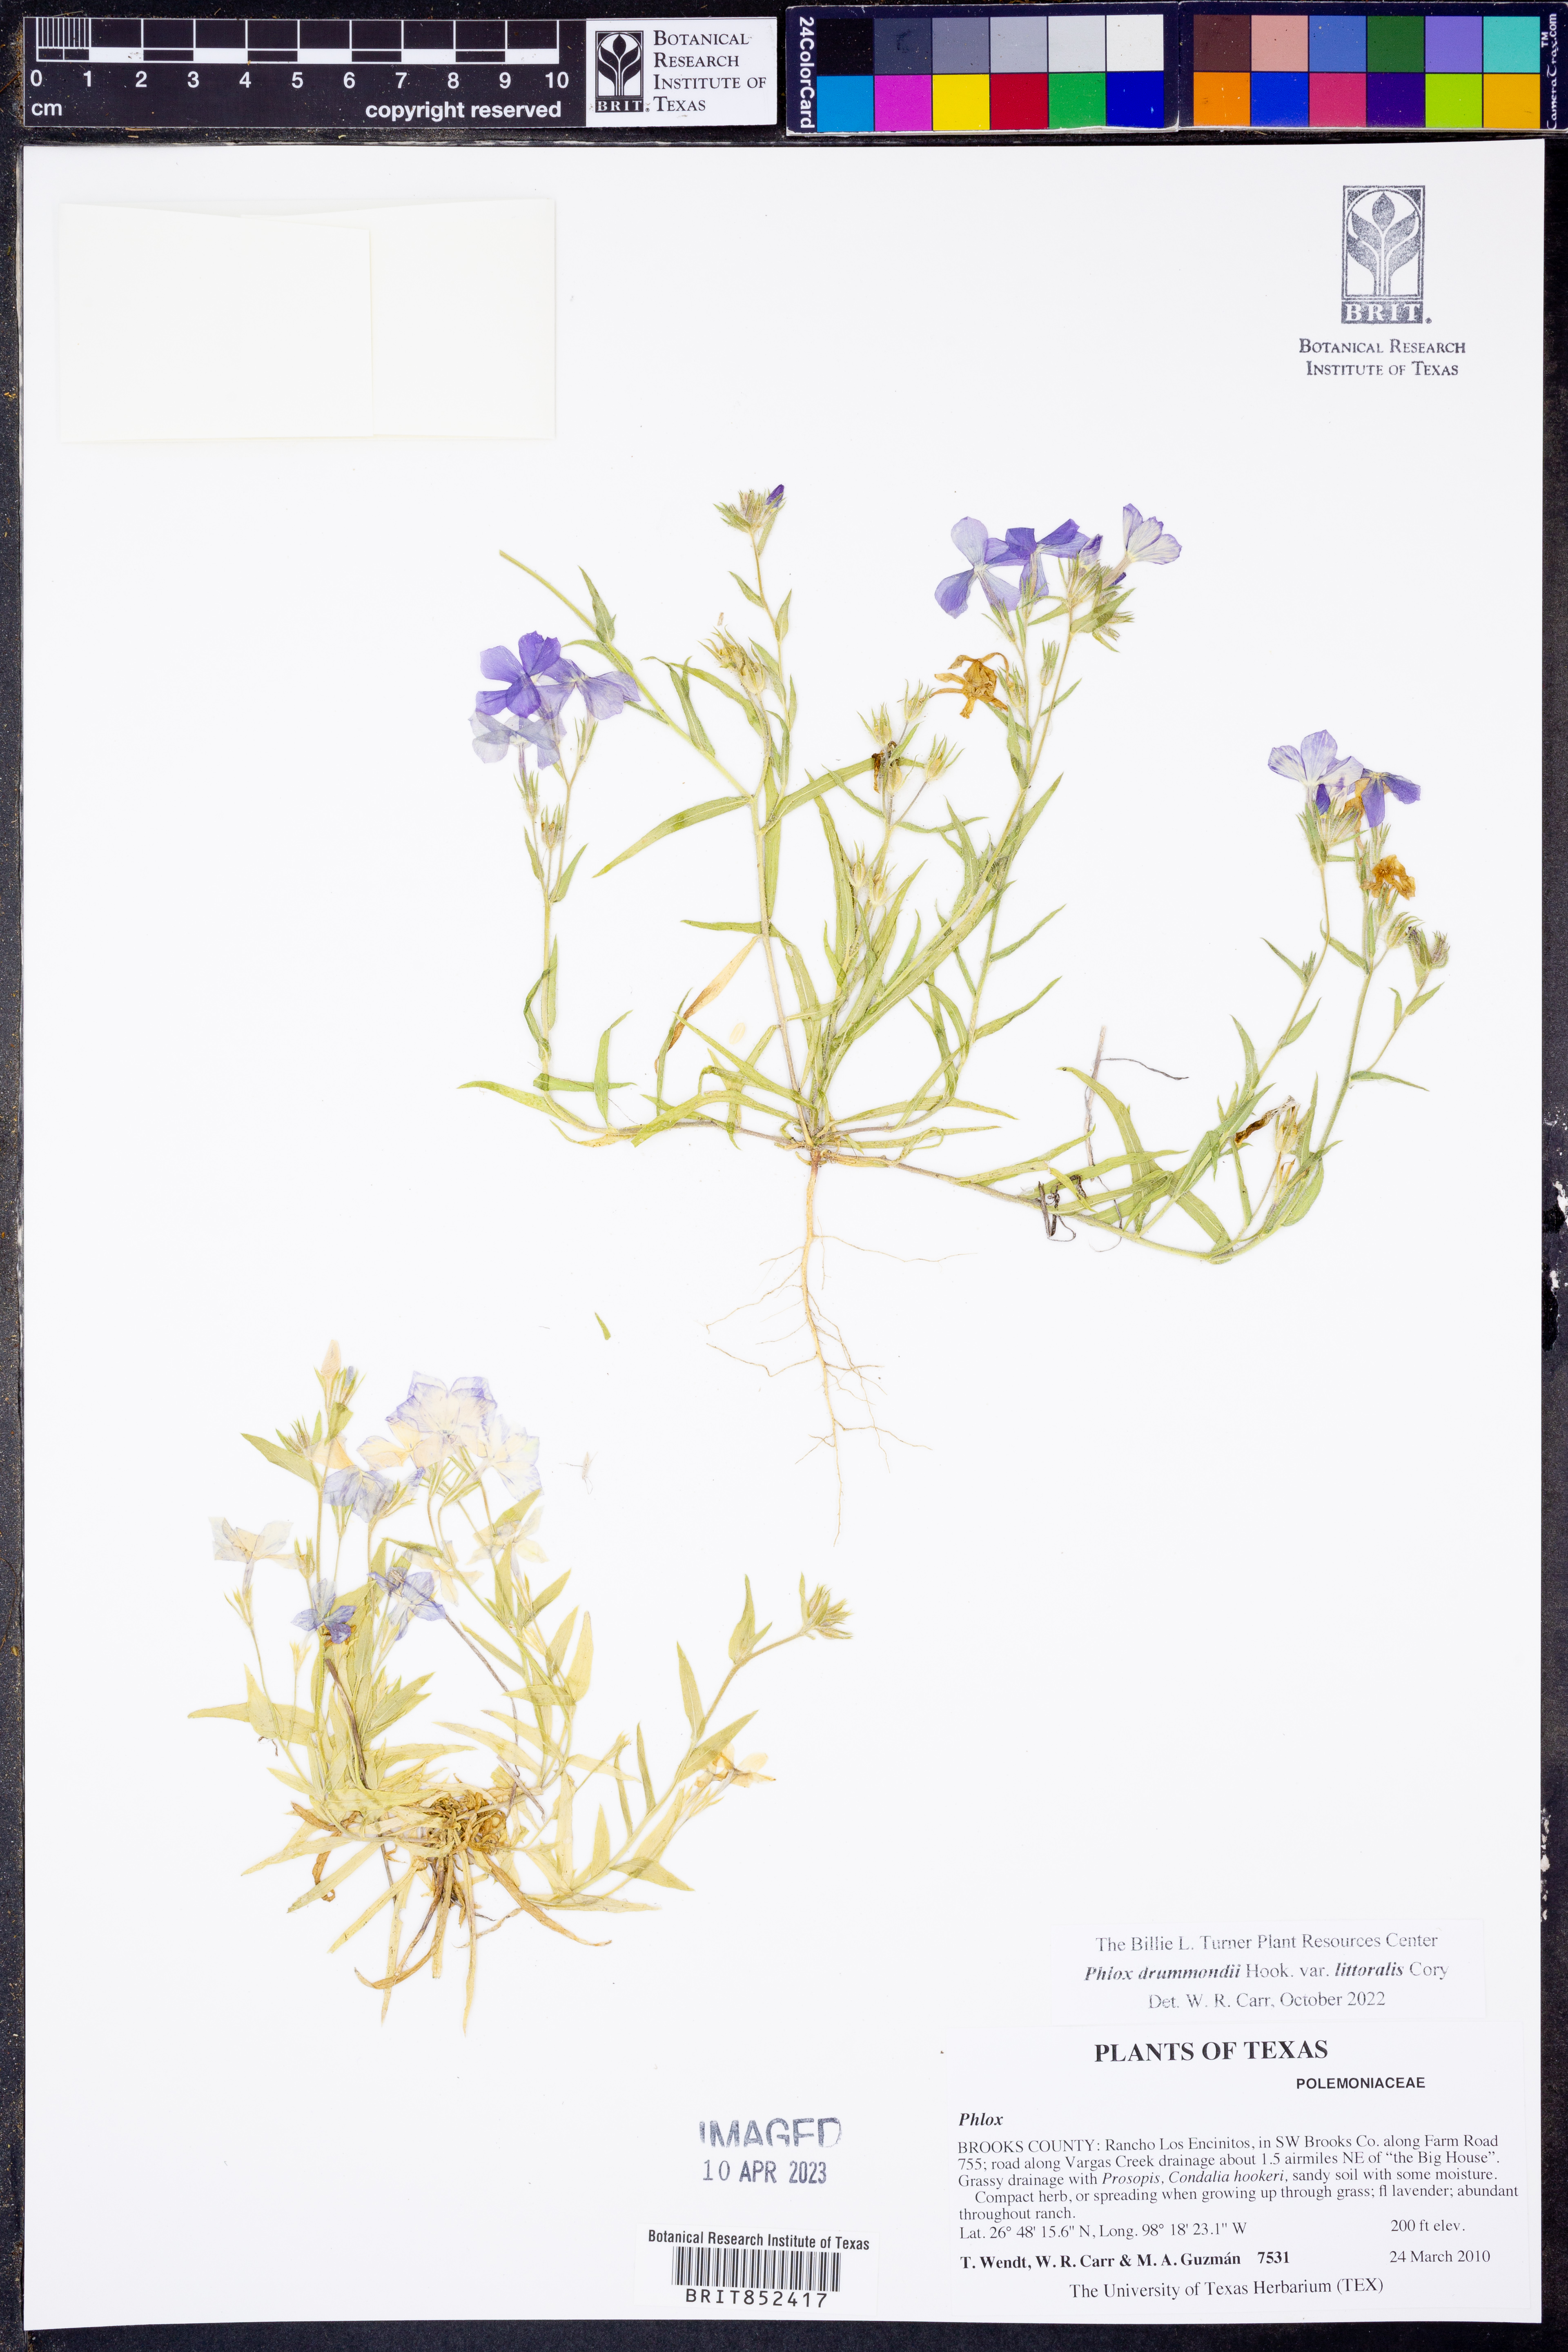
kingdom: Plantae
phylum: Tracheophyta
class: Magnoliopsida
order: Ericales
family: Polemoniaceae
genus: Phlox
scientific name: Phlox glabriflora
